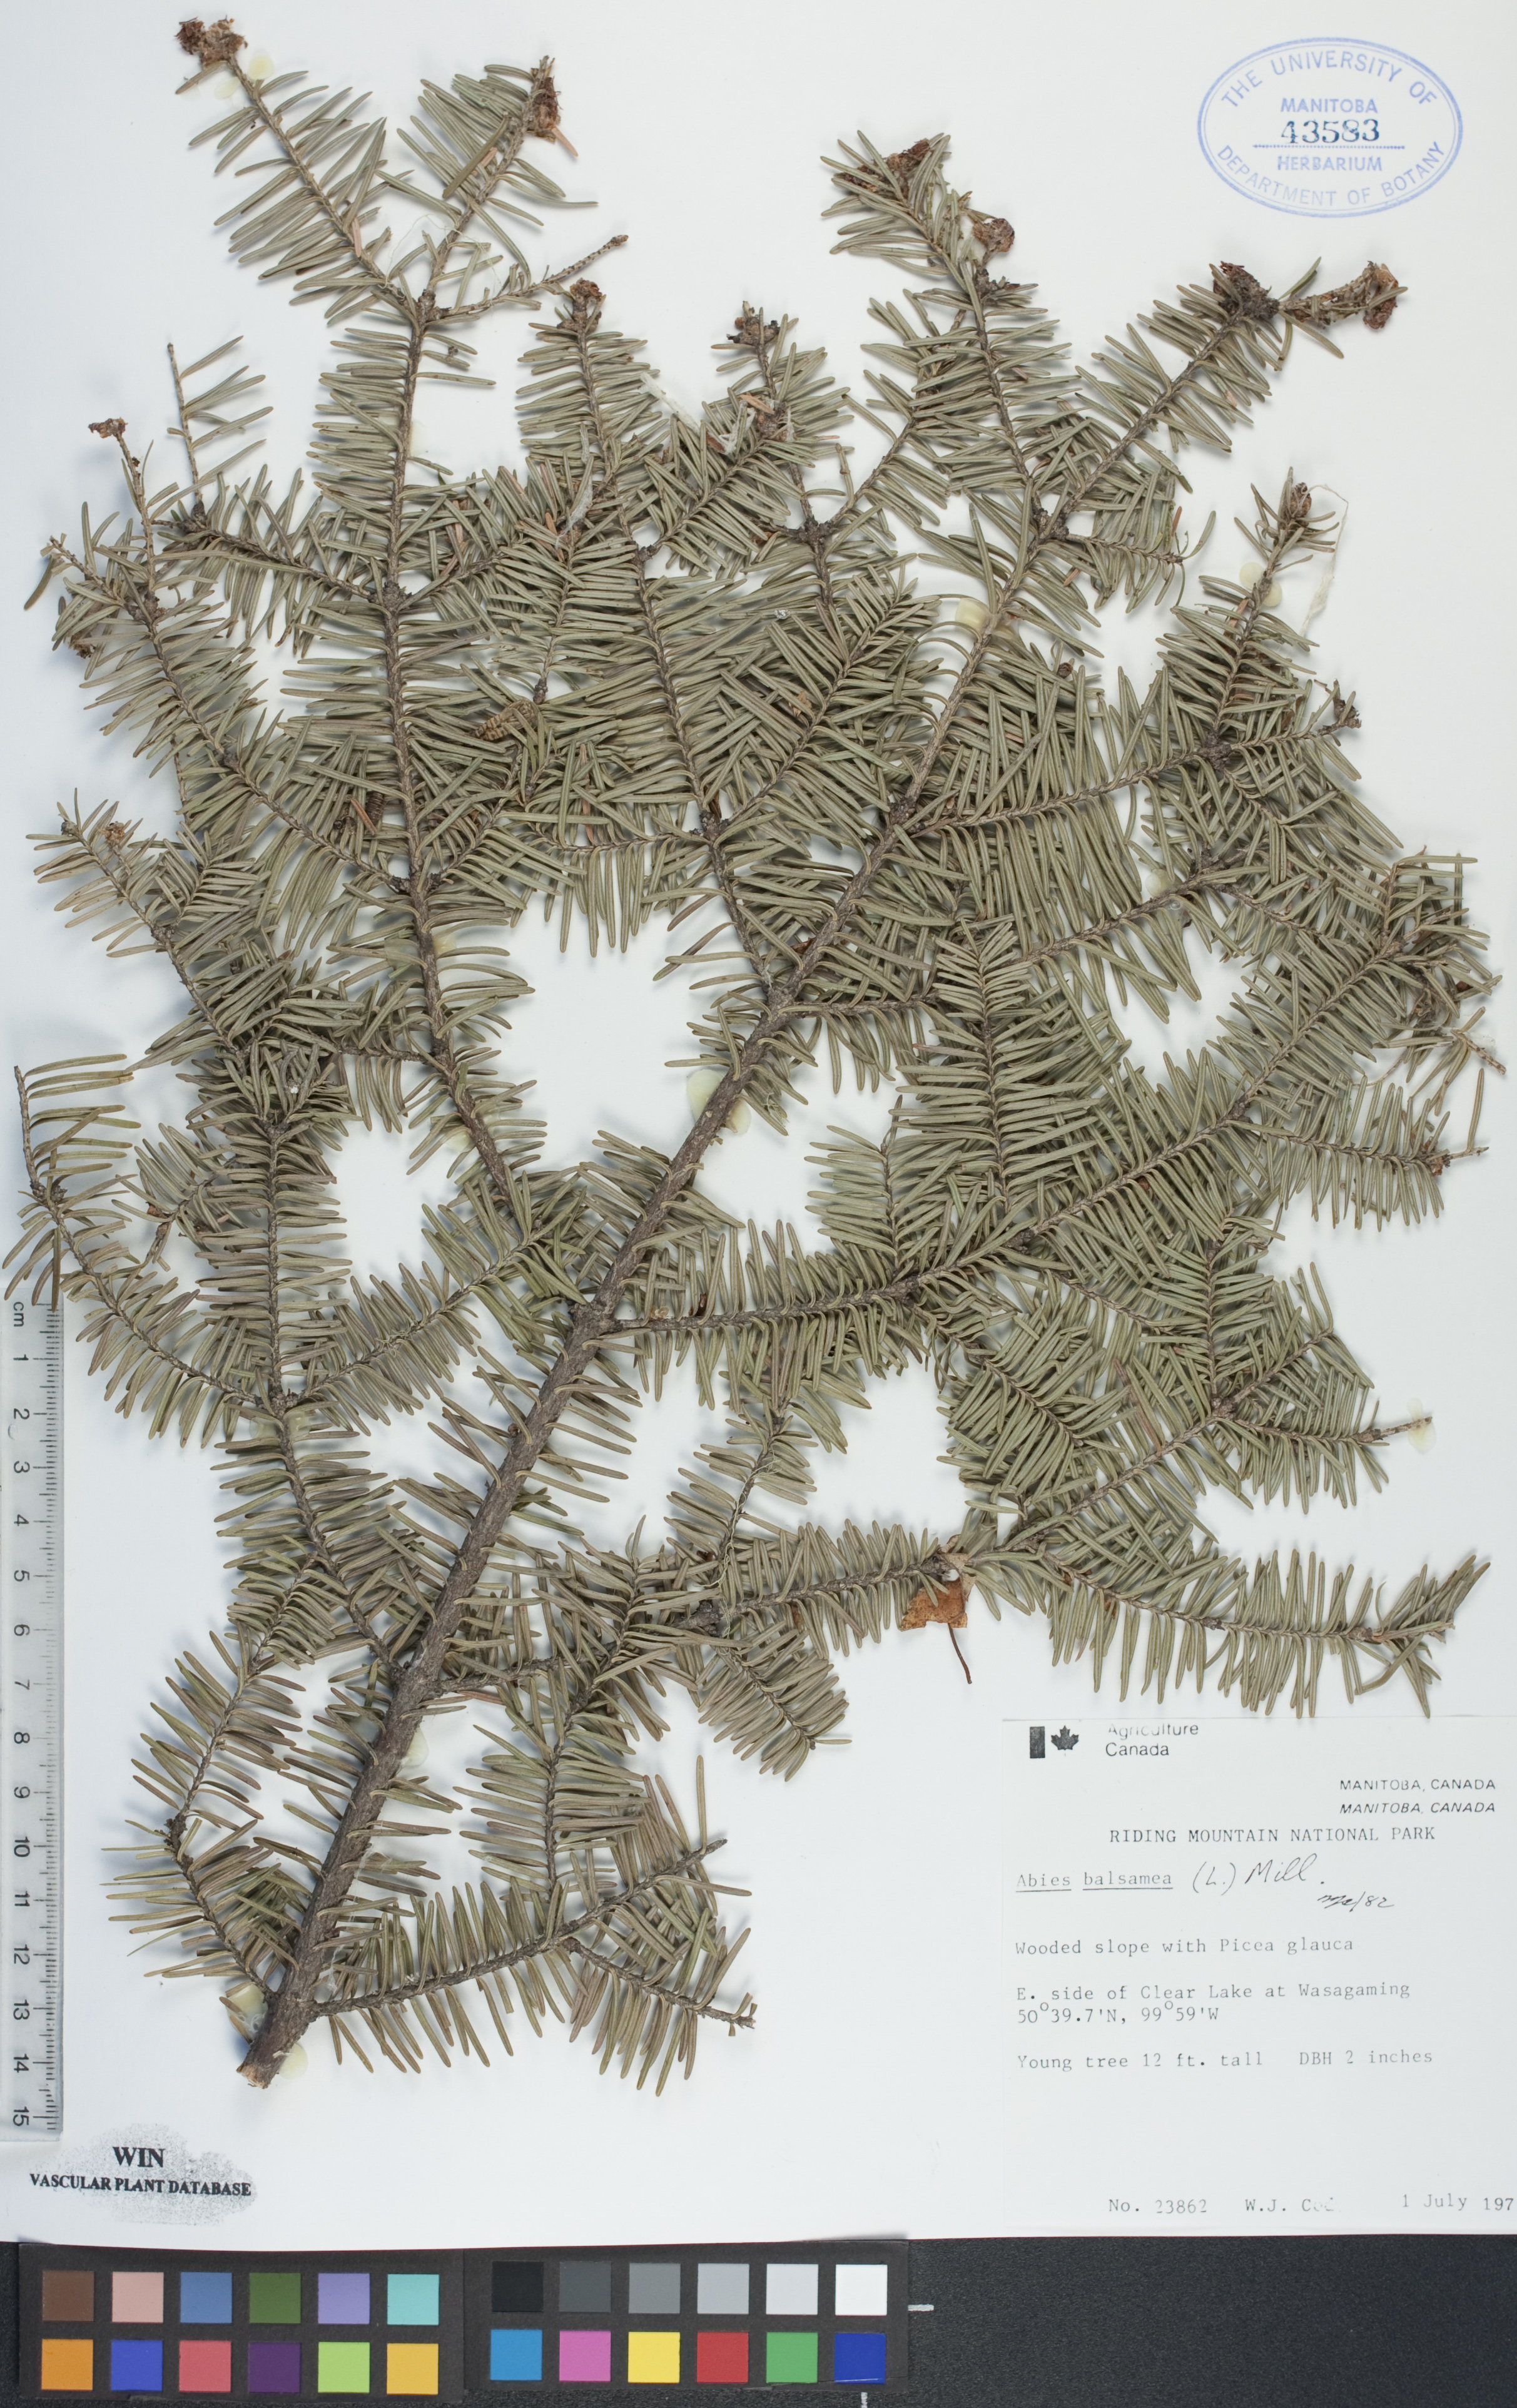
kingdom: Plantae
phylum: Tracheophyta
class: Pinopsida
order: Pinales
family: Pinaceae
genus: Abies
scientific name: Abies balsamea
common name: Balsam fir
